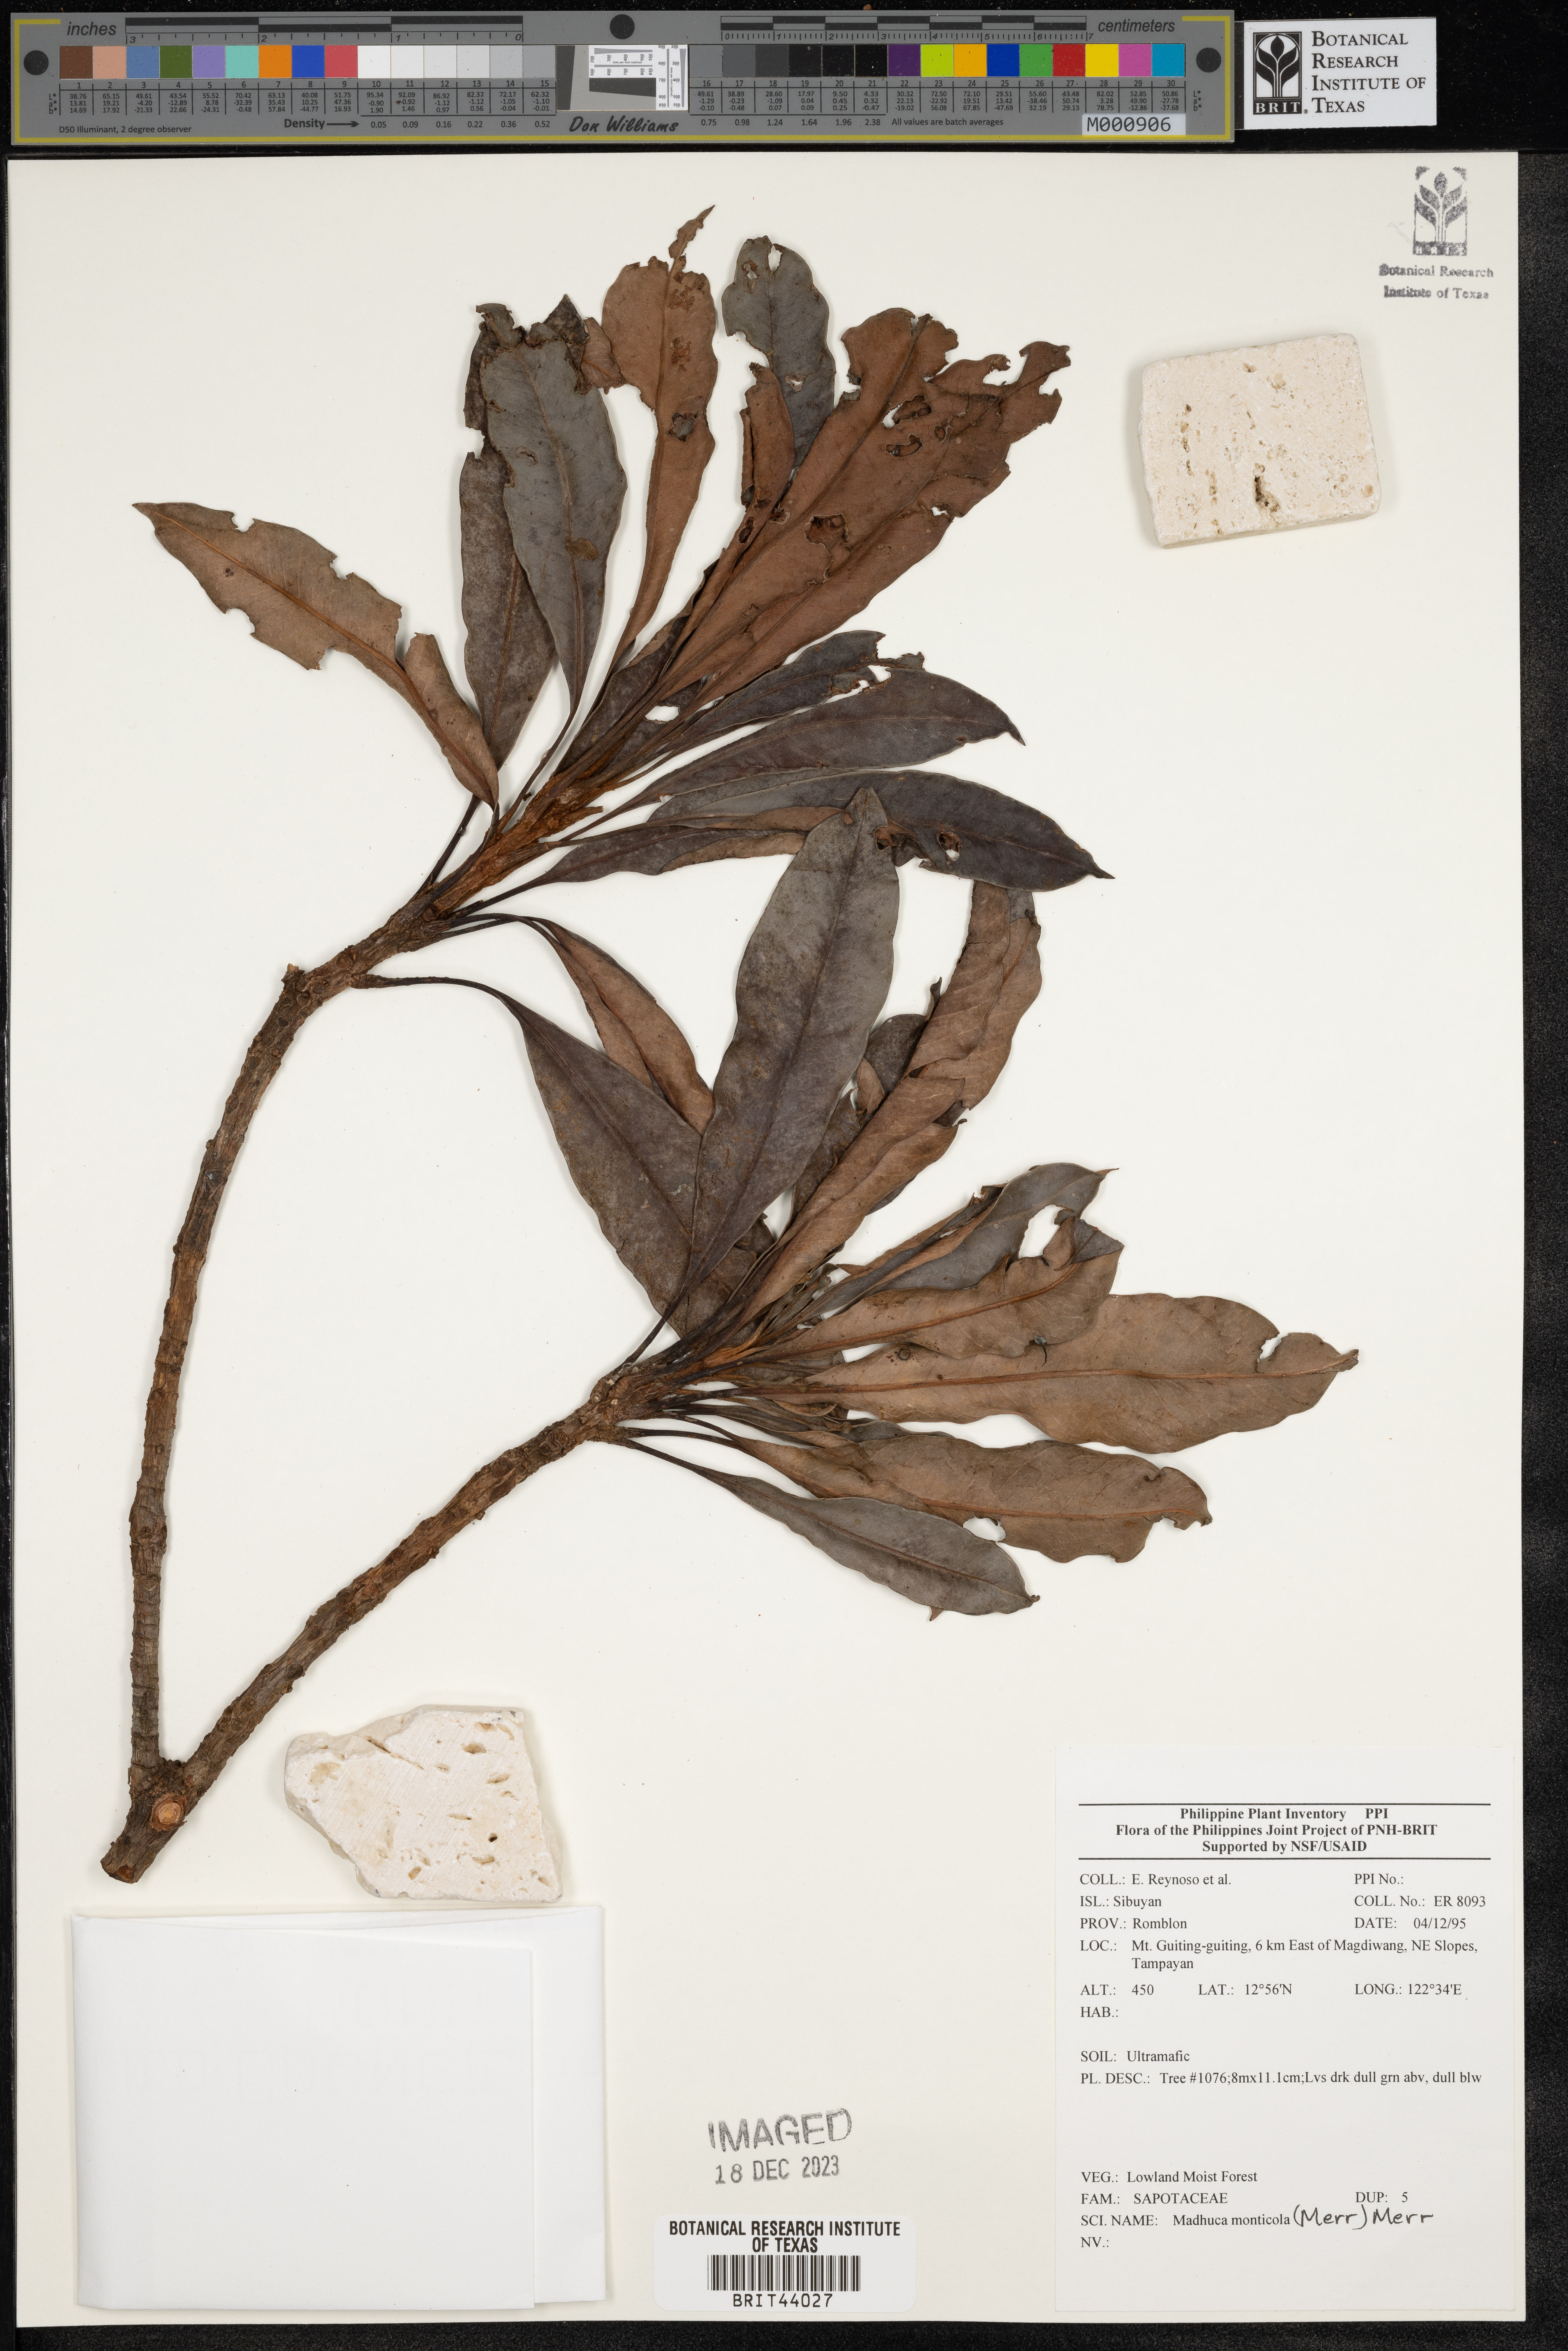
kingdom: Plantae
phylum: Tracheophyta
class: Magnoliopsida
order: Ericales
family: Sapotaceae
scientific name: Sapotaceae
